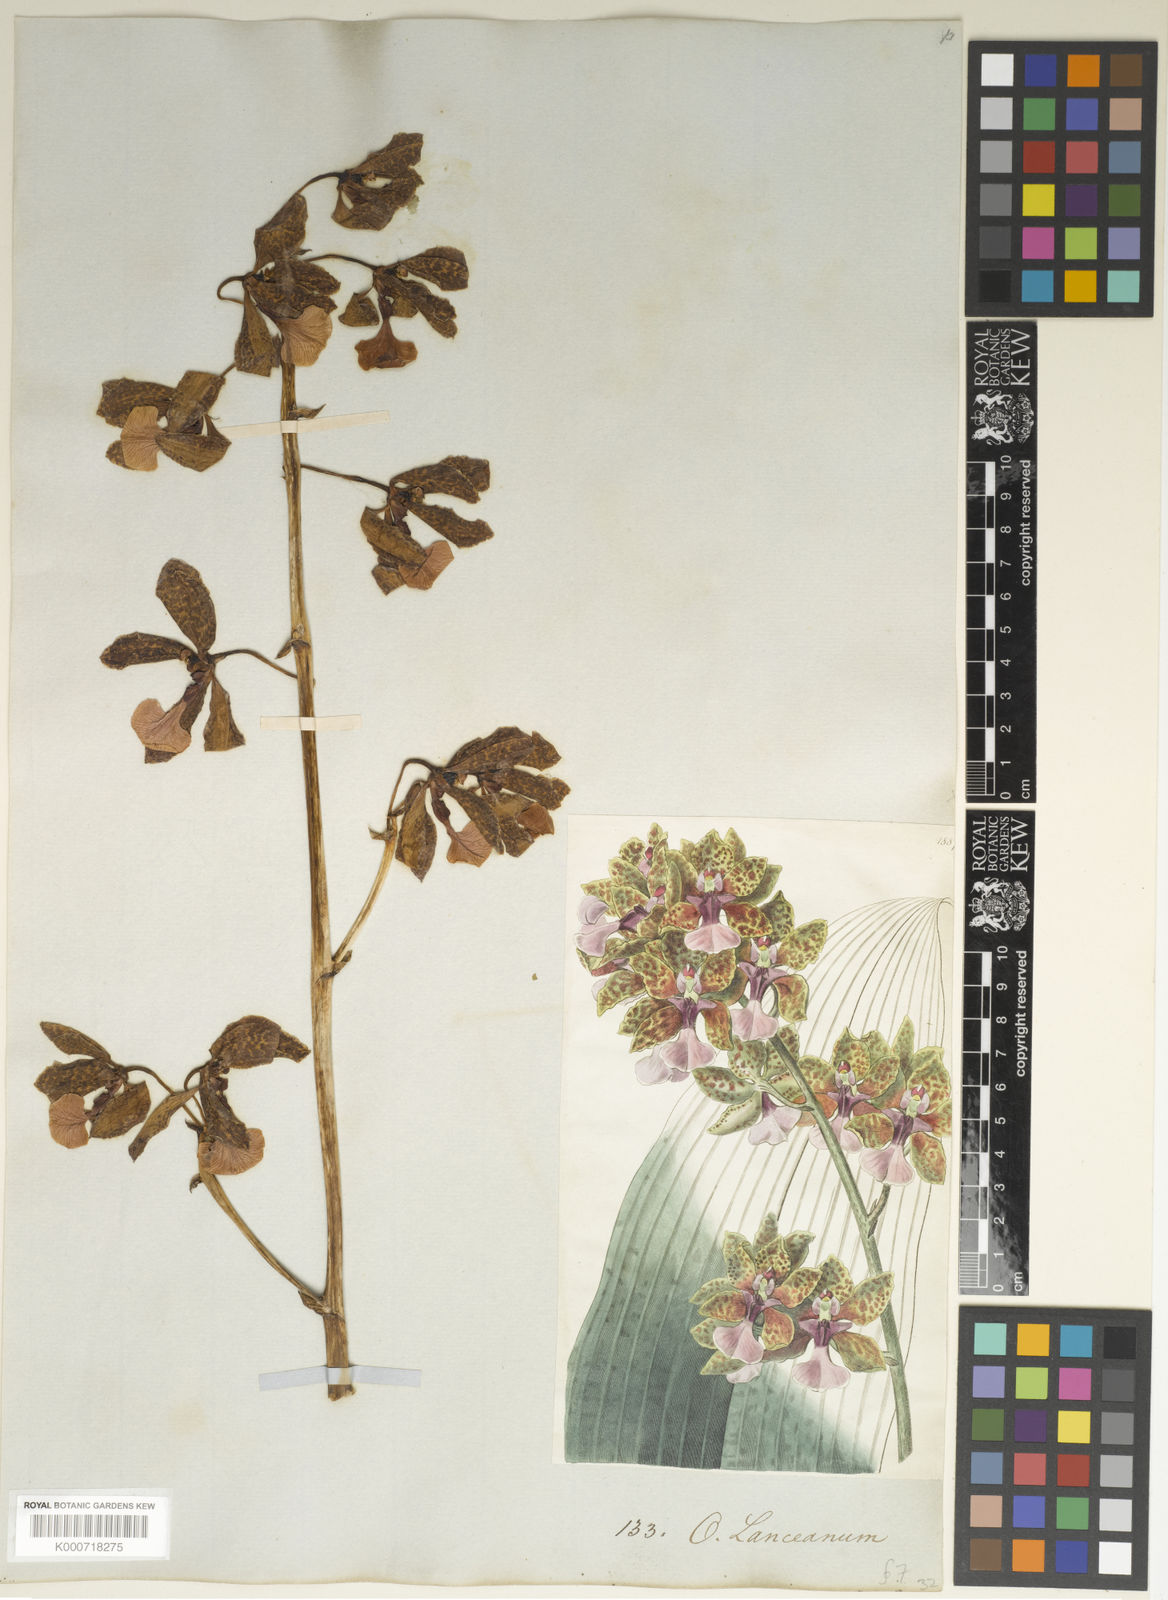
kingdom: Plantae
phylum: Tracheophyta
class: Liliopsida
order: Asparagales
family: Orchidaceae
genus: Trichocentrum
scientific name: Trichocentrum lanceanum
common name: Mule-ear orchid
